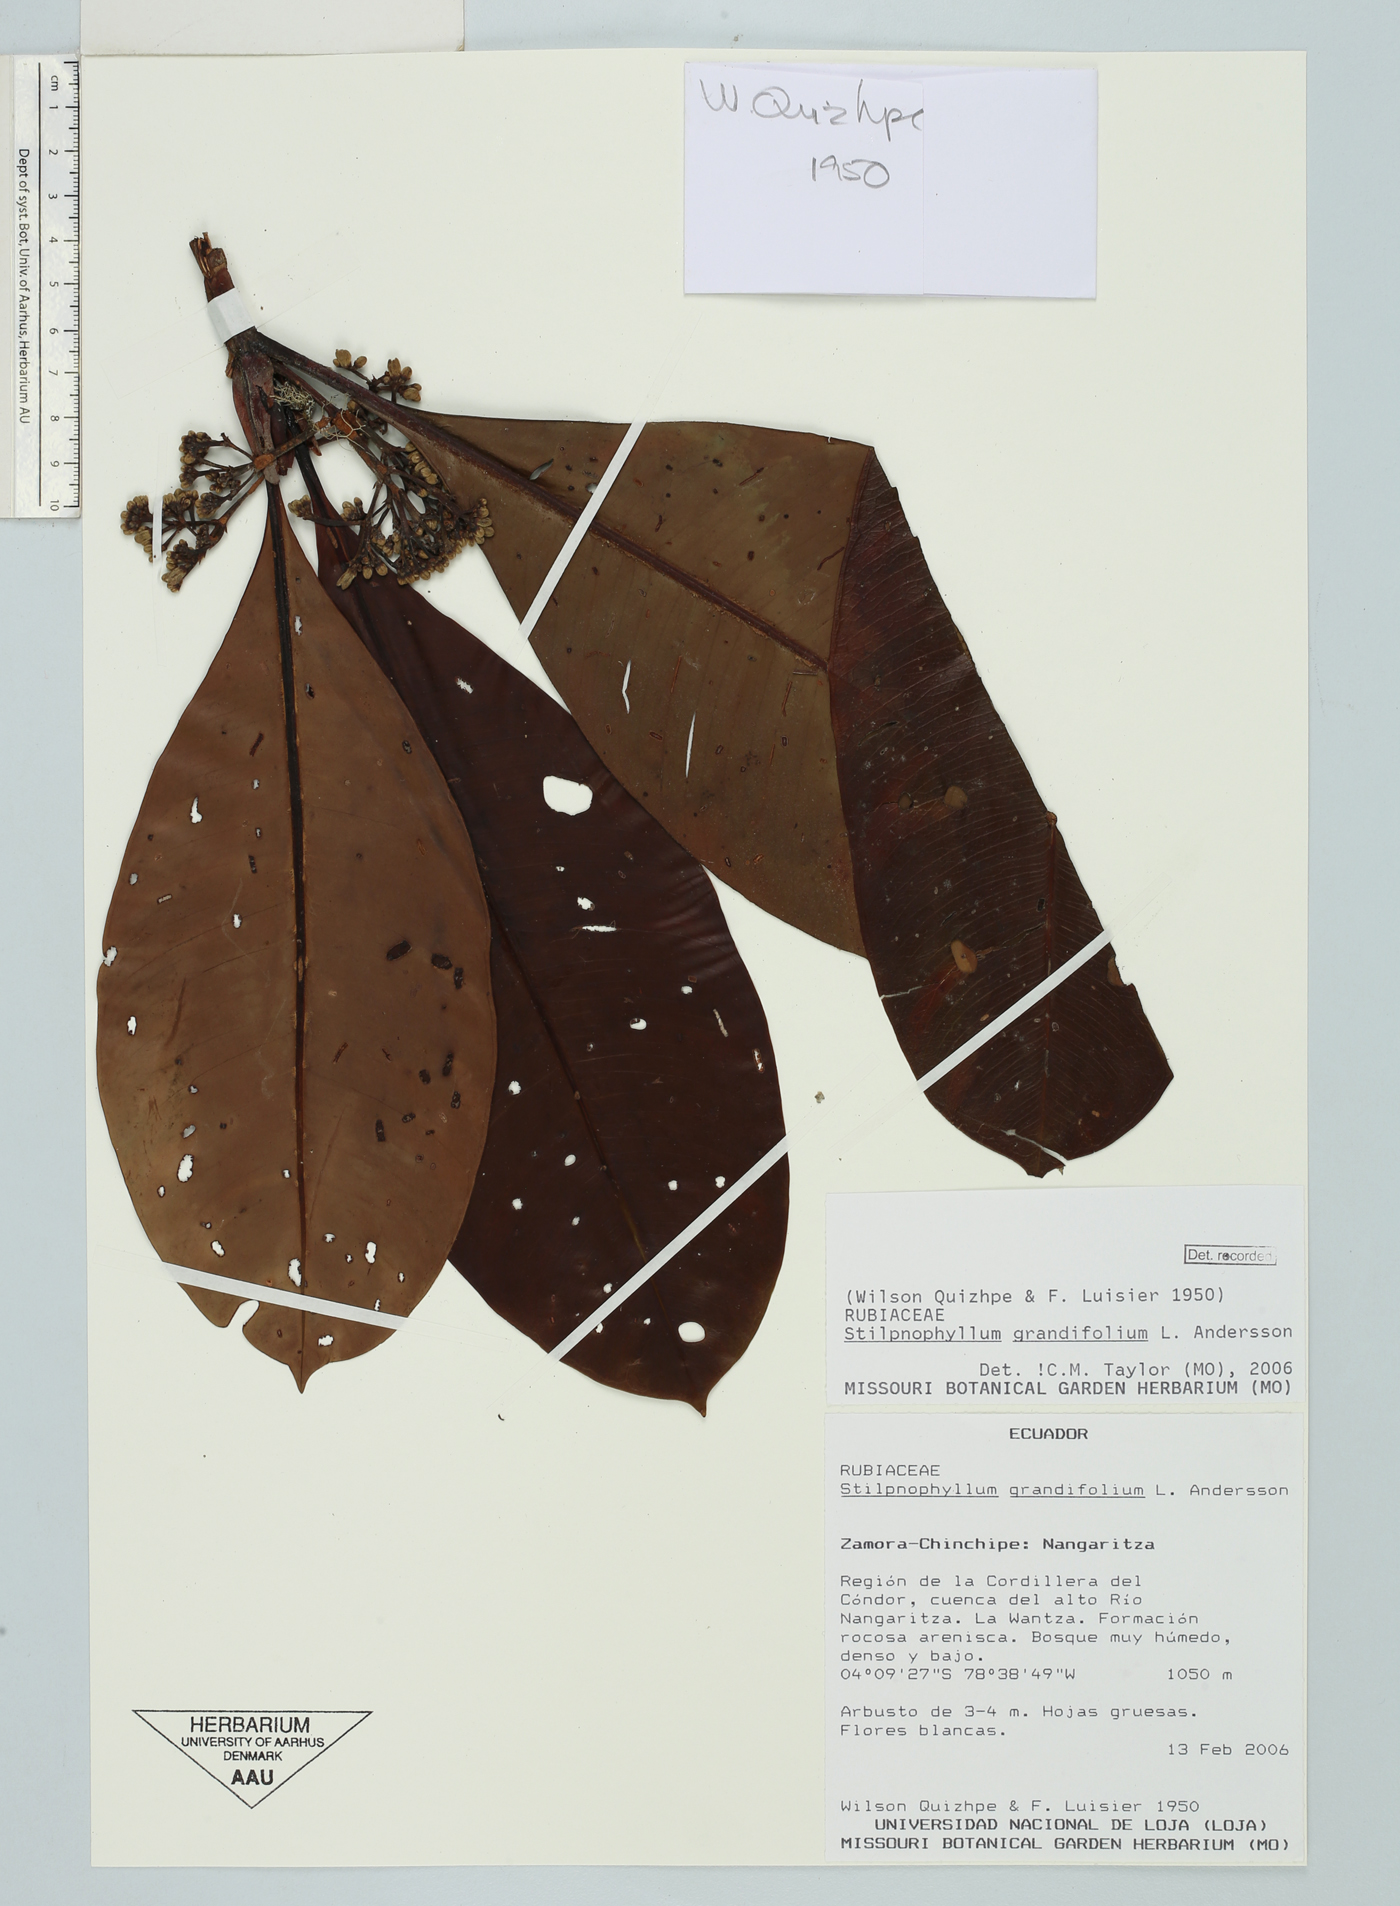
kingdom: Plantae
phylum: Tracheophyta
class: Magnoliopsida
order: Gentianales
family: Rubiaceae
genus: Stilpnophyllum
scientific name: Stilpnophyllum grandifolium
